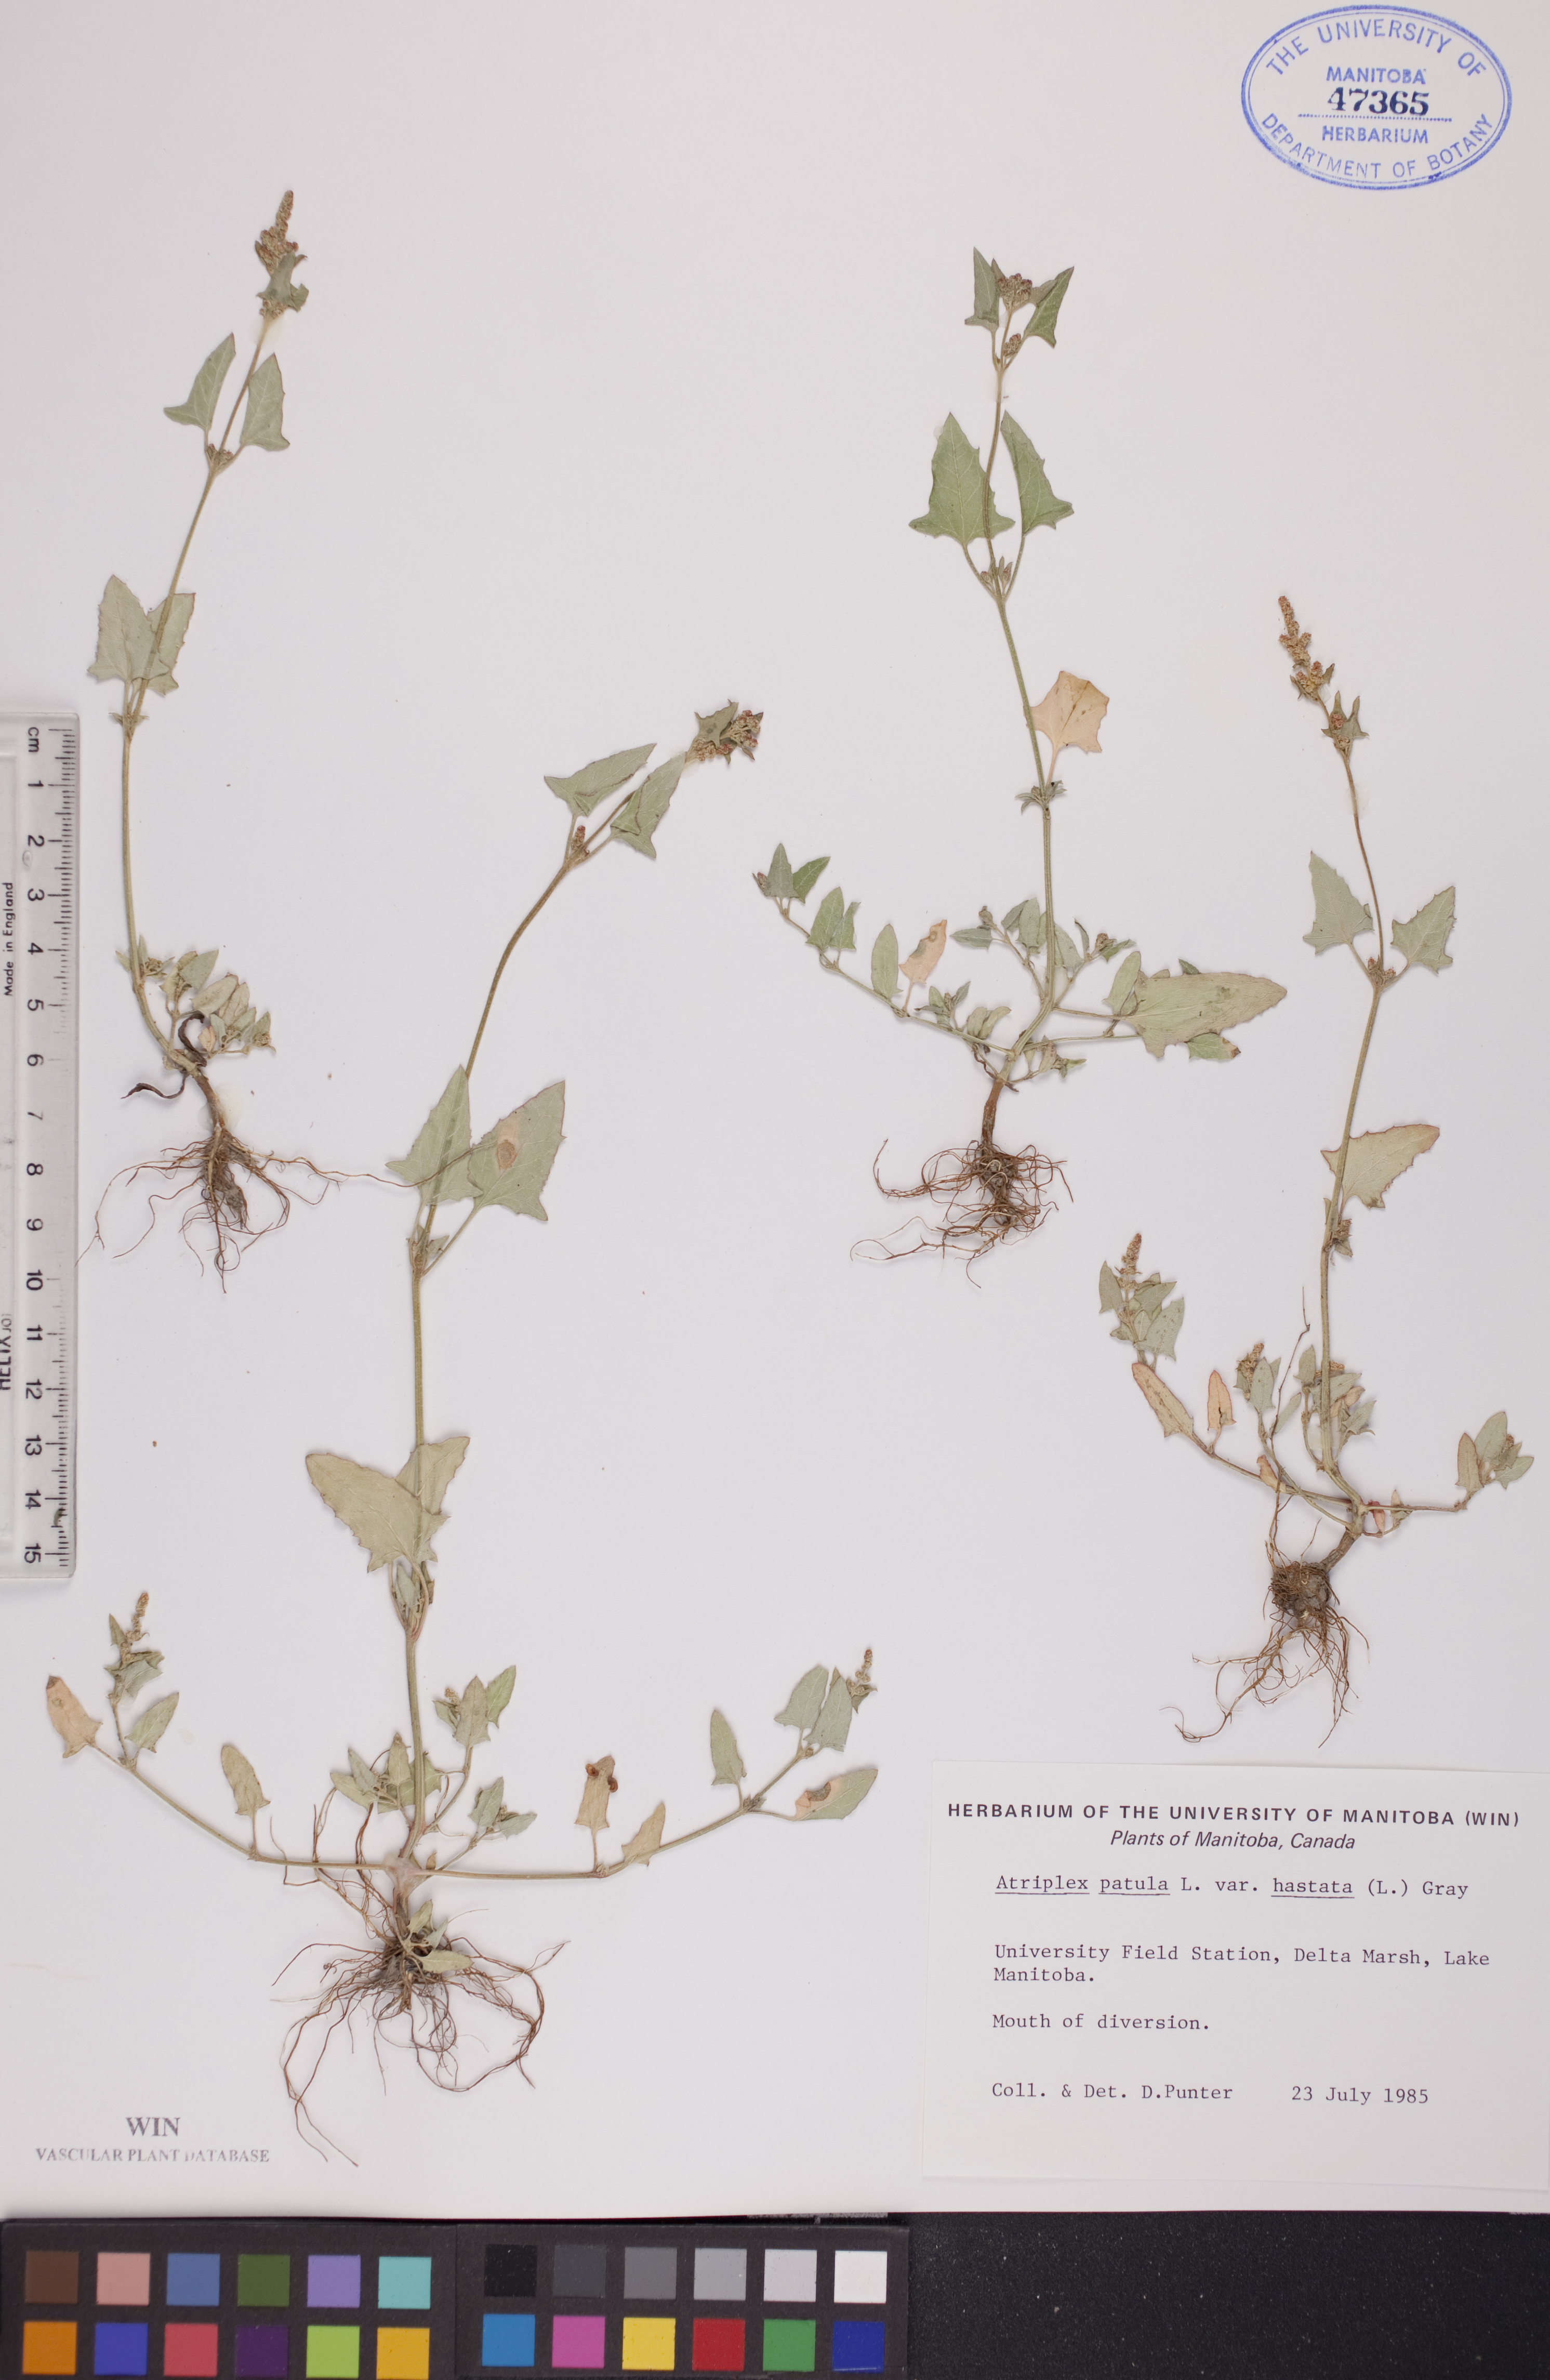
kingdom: Plantae
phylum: Tracheophyta
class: Magnoliopsida
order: Caryophyllales
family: Amaranthaceae
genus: Atriplex
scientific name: Atriplex
